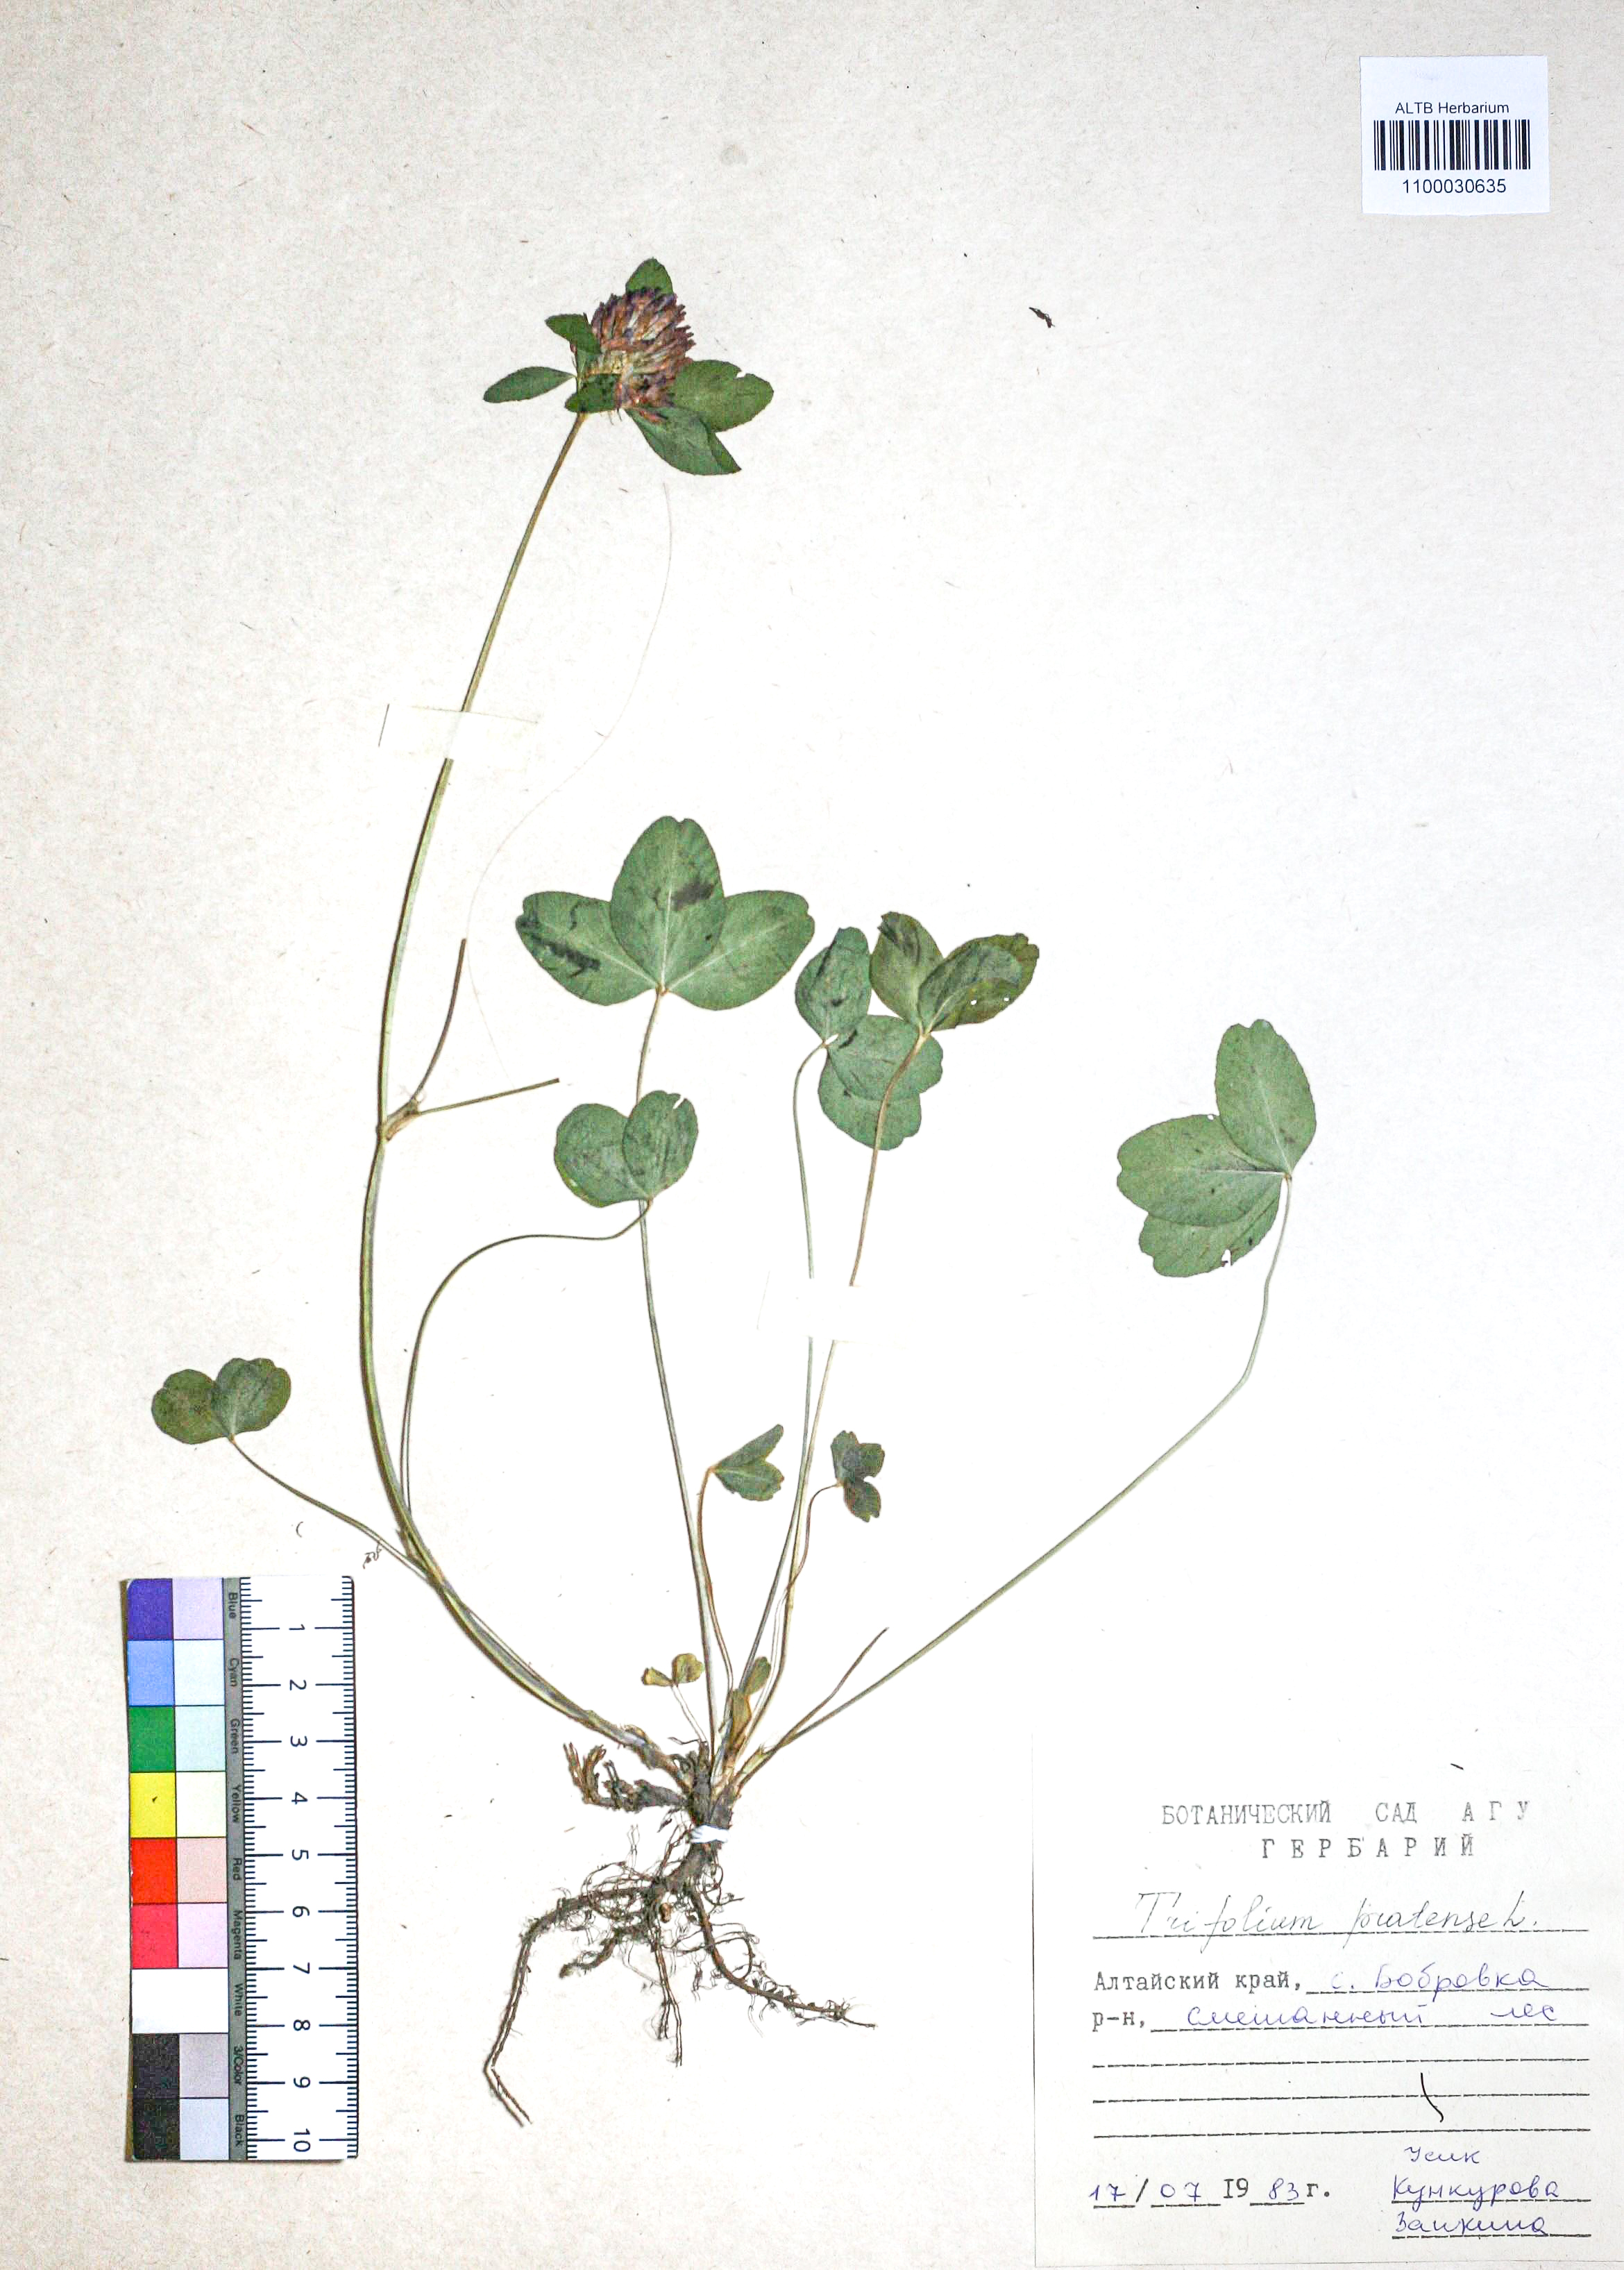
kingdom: Plantae
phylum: Tracheophyta
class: Magnoliopsida
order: Fabales
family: Fabaceae
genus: Trifolium
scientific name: Trifolium pratense
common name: Red clover
